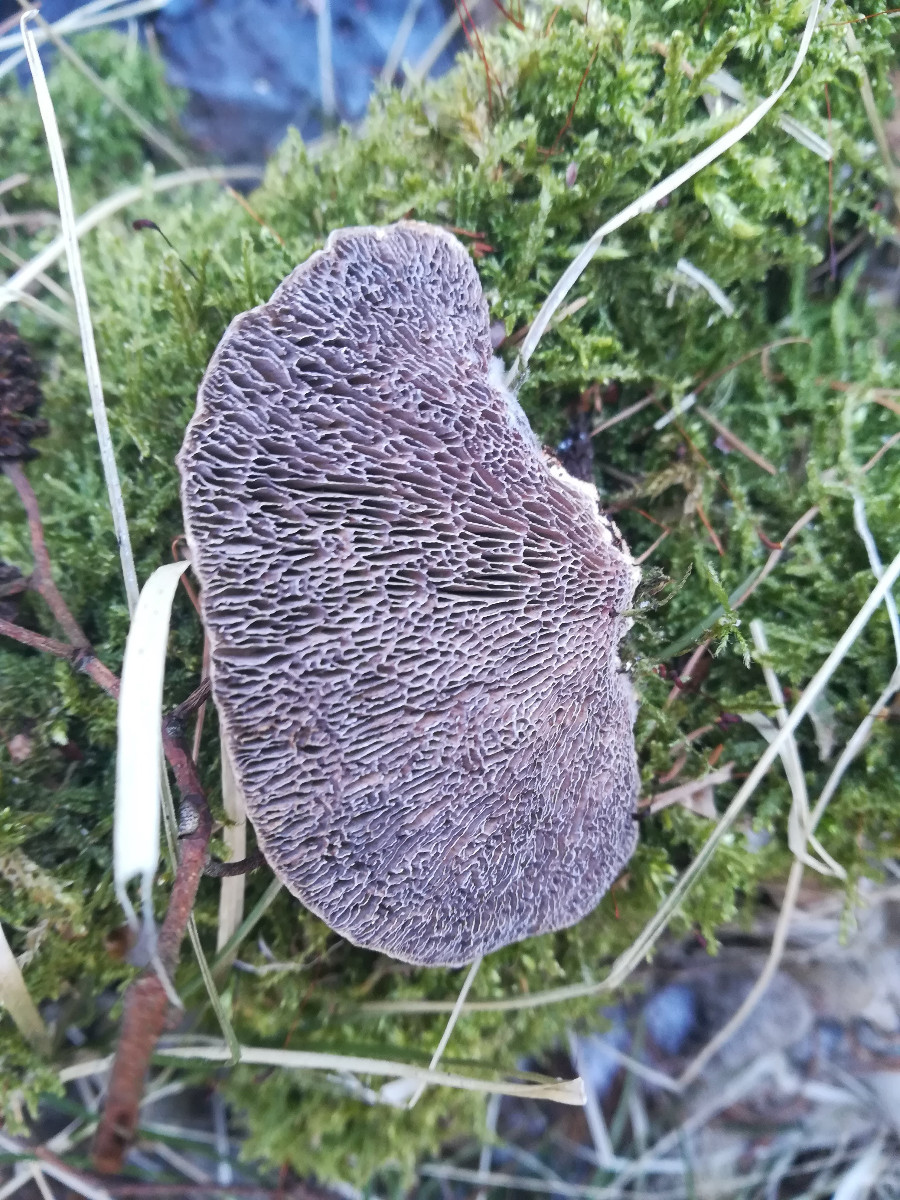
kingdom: Fungi
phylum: Basidiomycota
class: Agaricomycetes
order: Polyporales
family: Polyporaceae
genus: Daedaleopsis
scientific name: Daedaleopsis confragosa
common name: rødmende læderporesvamp
